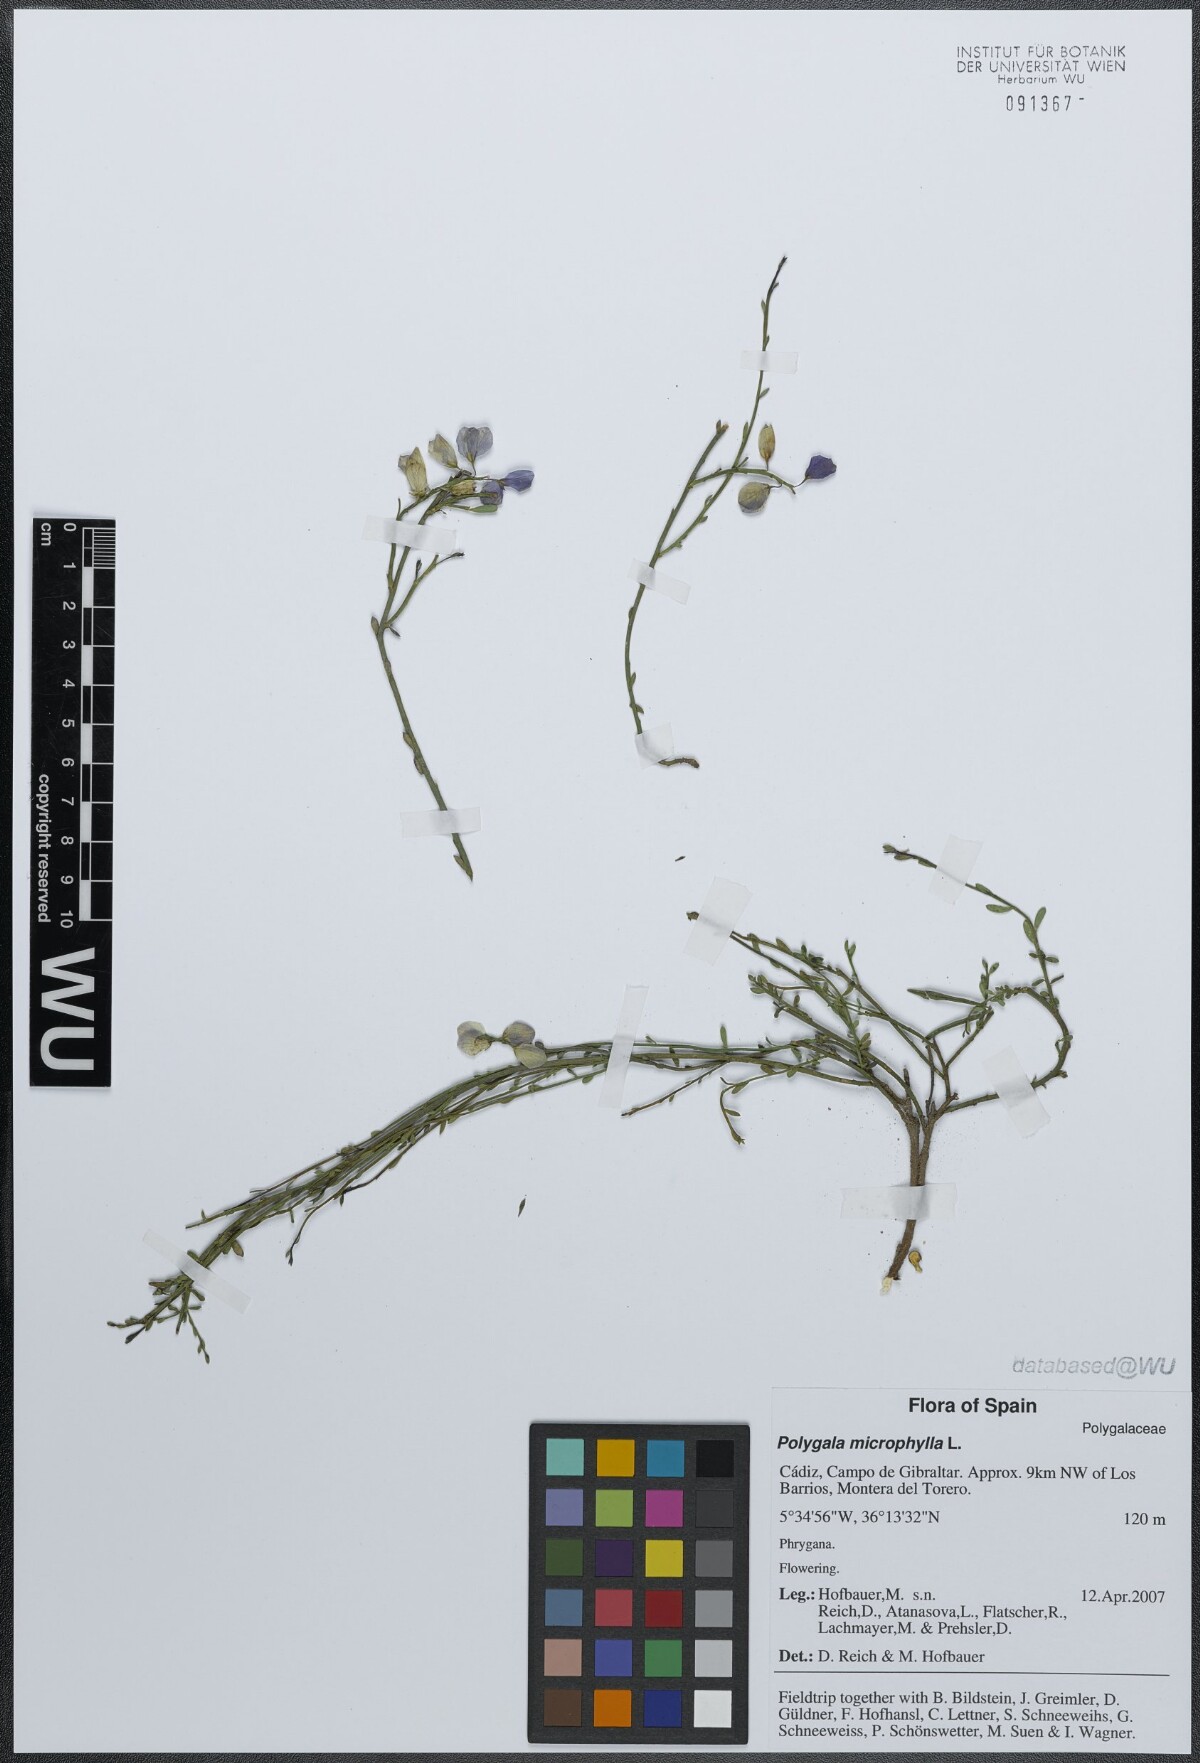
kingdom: Plantae
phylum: Tracheophyta
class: Magnoliopsida
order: Fabales
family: Polygalaceae
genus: Polygala
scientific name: Polygala microphylla
